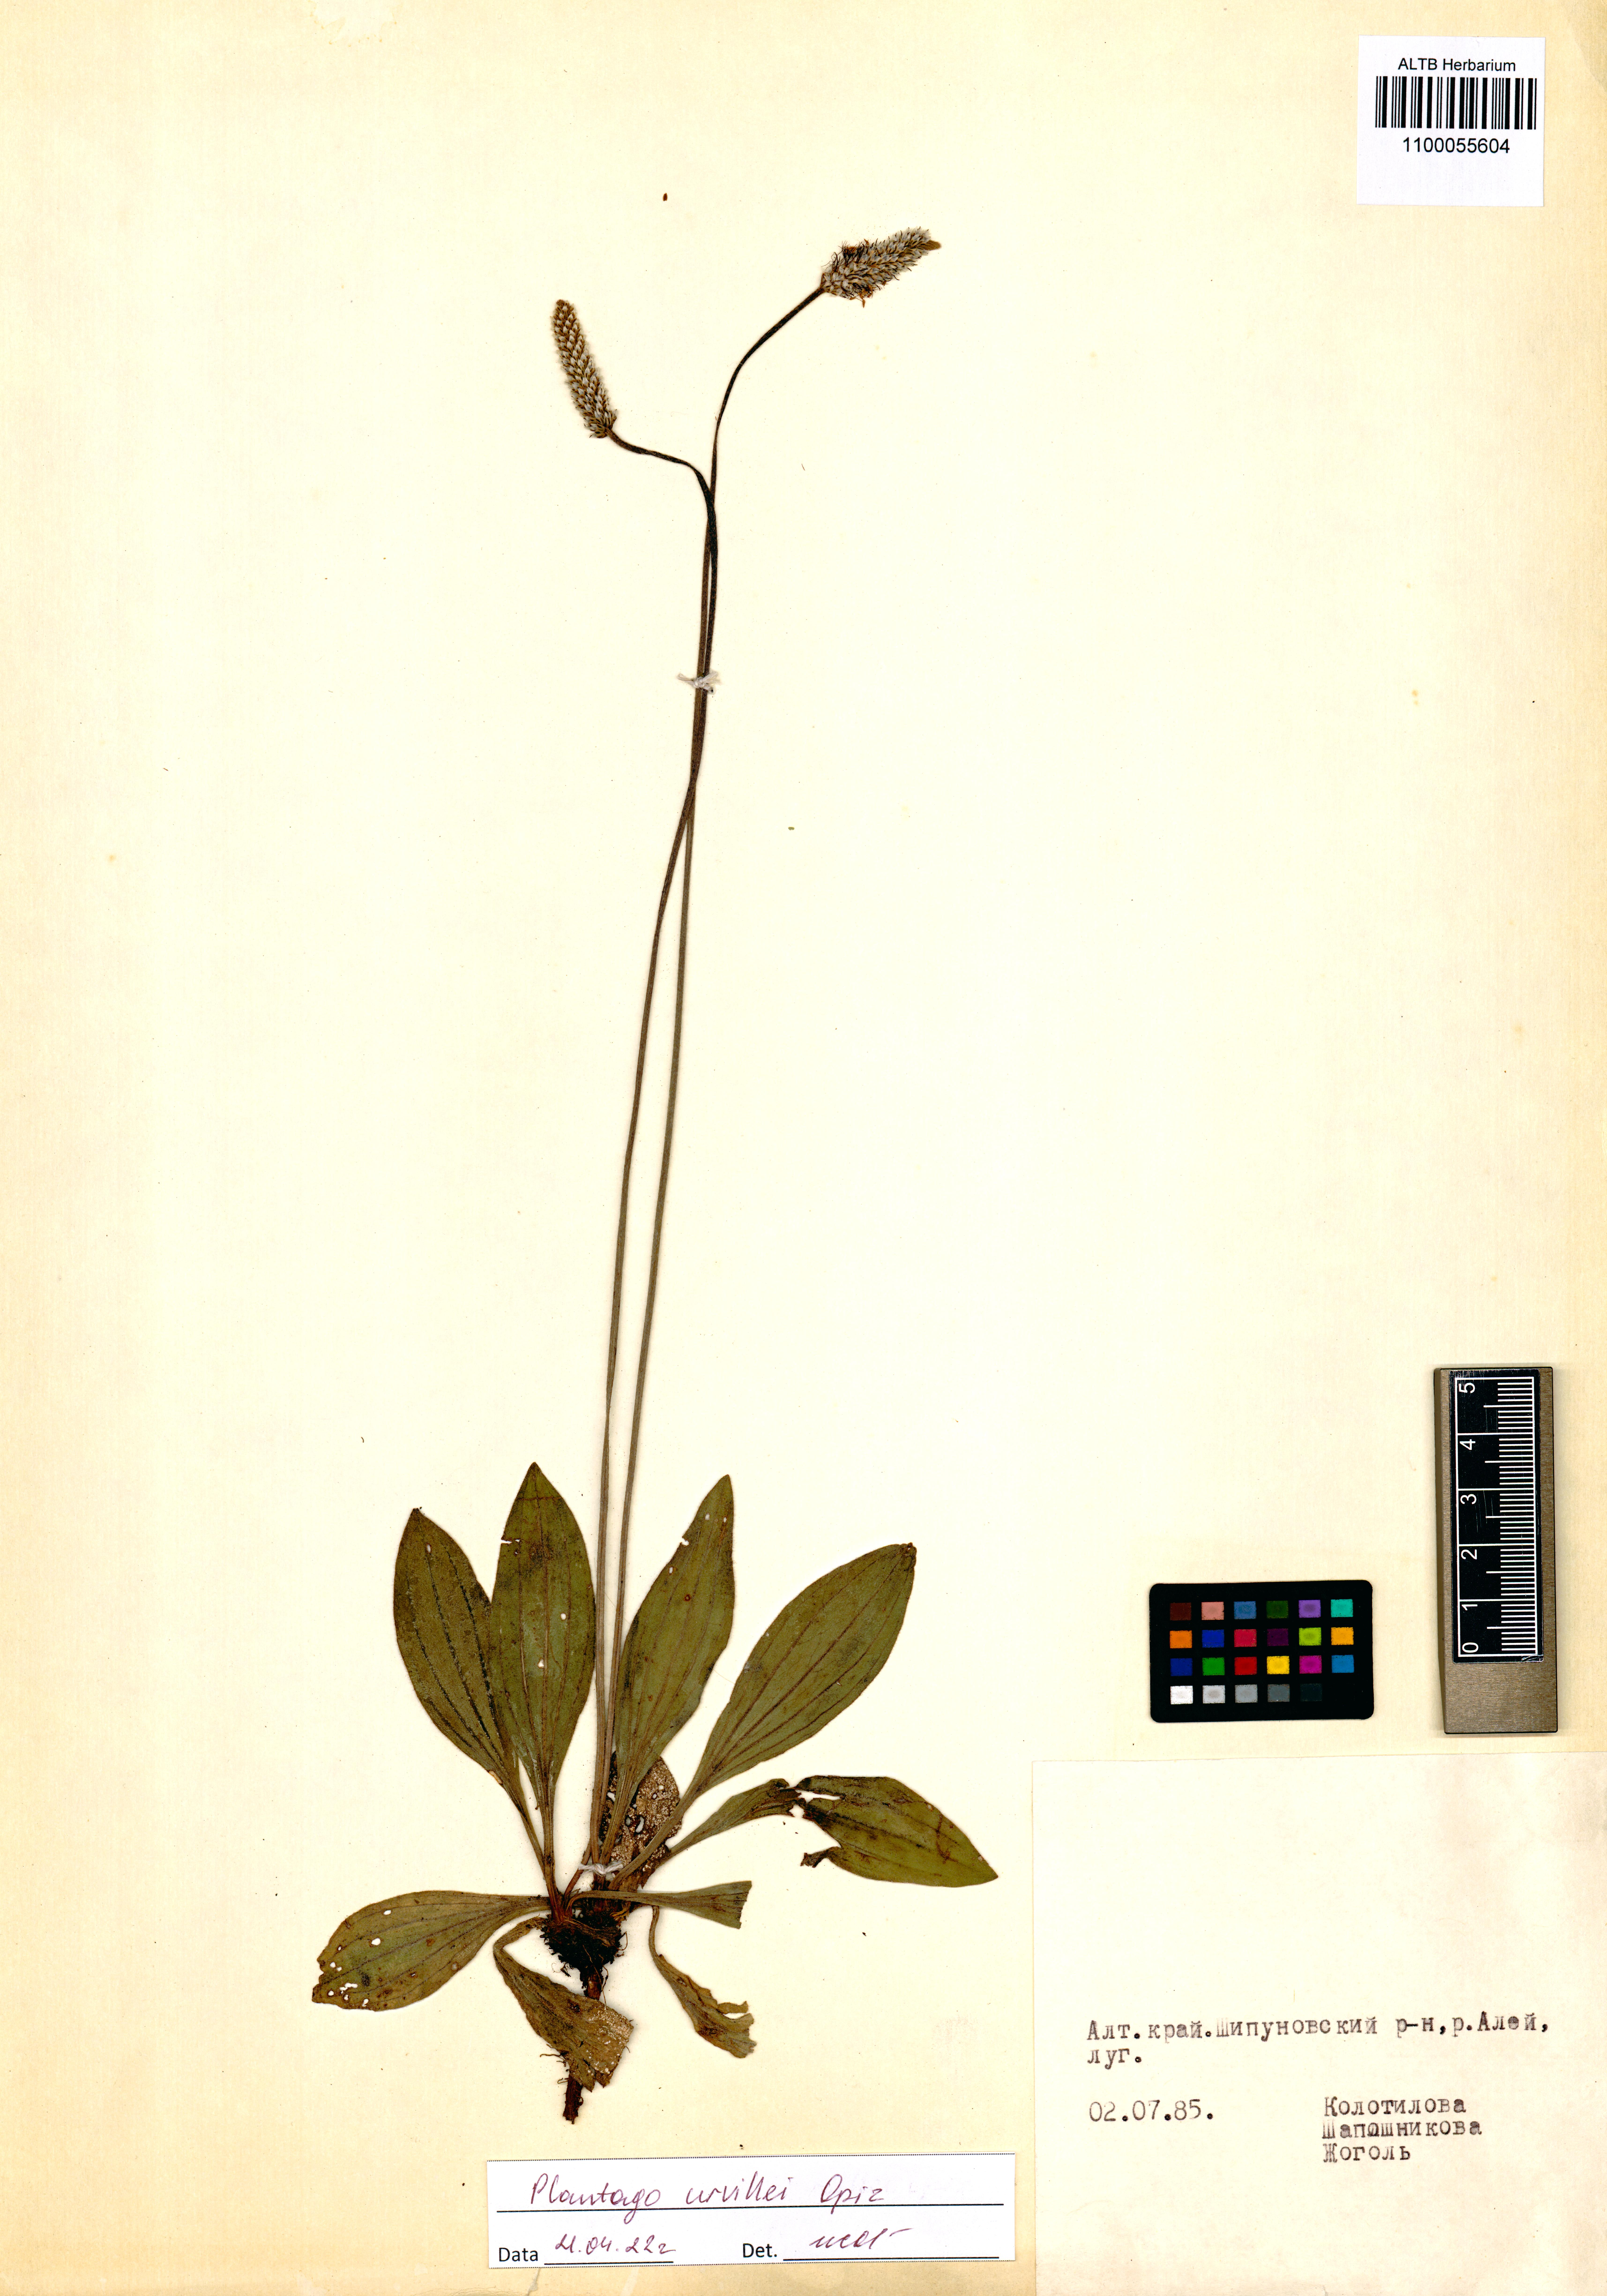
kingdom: Plantae
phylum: Tracheophyta
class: Magnoliopsida
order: Lamiales
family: Plantaginaceae
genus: Plantago
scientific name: Plantago urvillei
